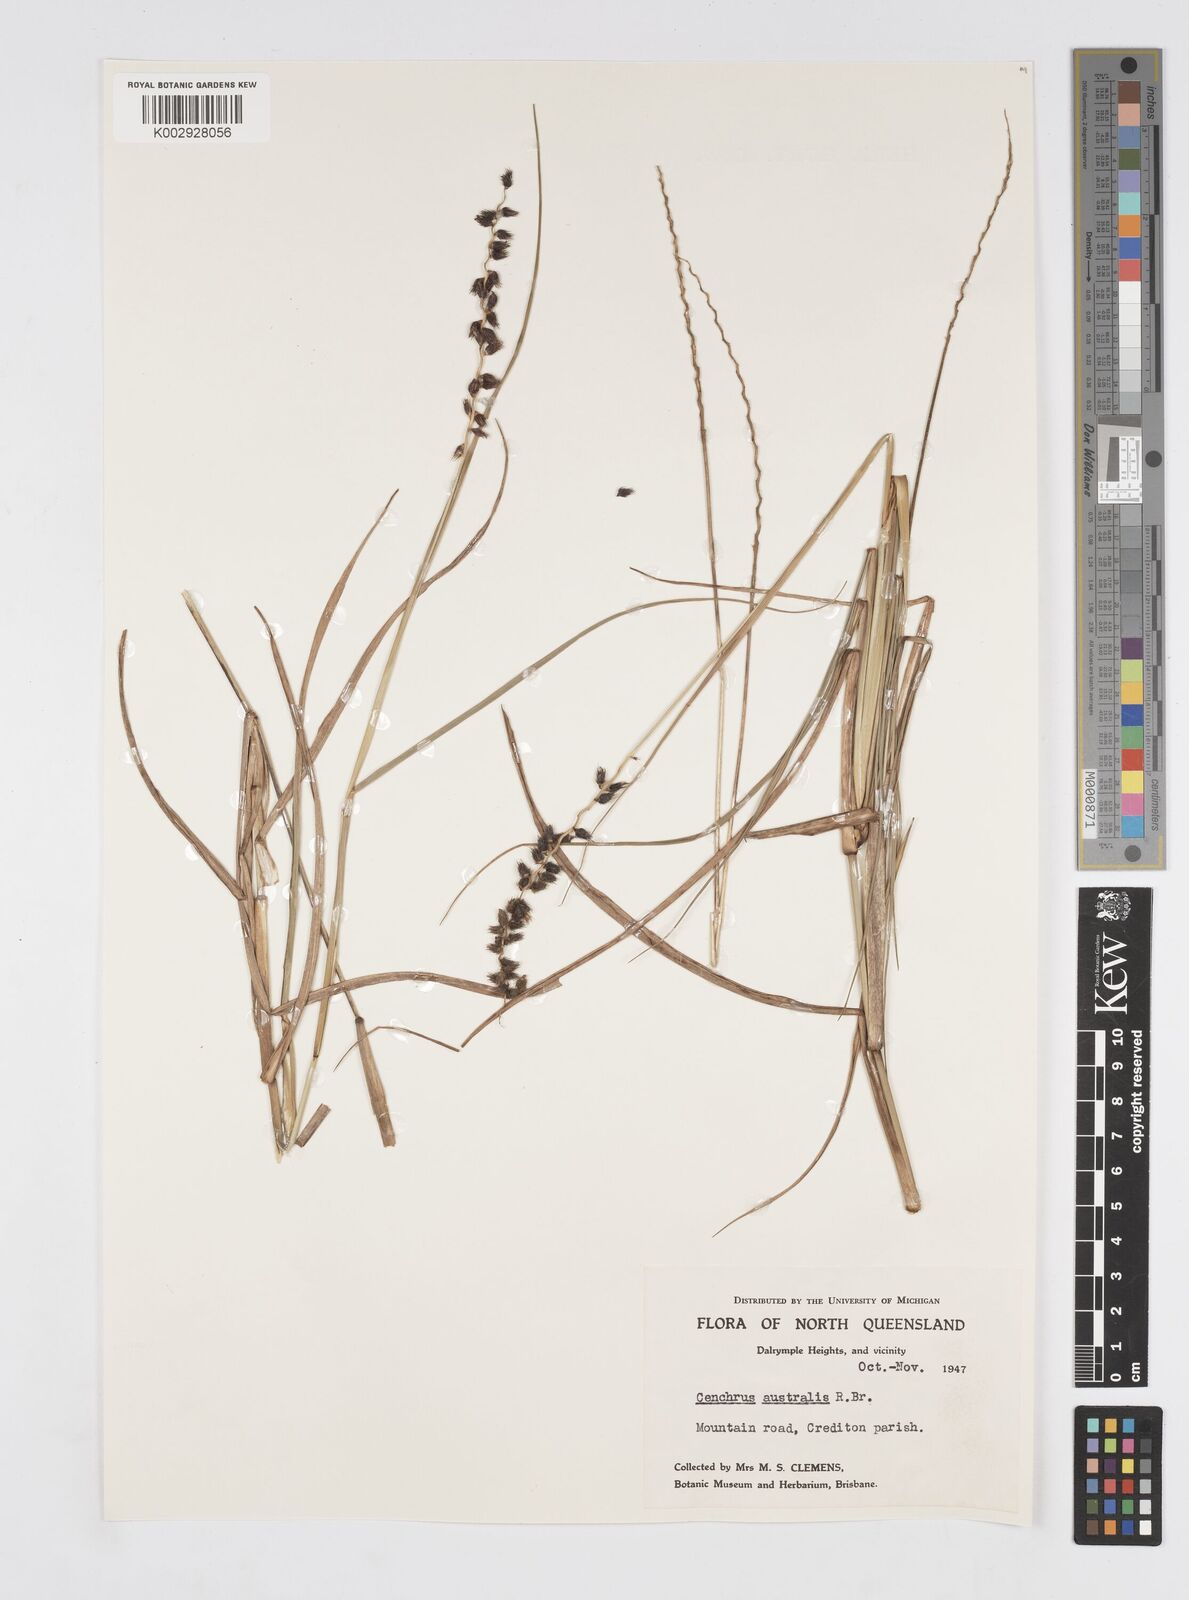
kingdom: Plantae
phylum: Tracheophyta
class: Liliopsida
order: Poales
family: Poaceae
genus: Cenchrus
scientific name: Cenchrus caliculatus
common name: Large bur grass
